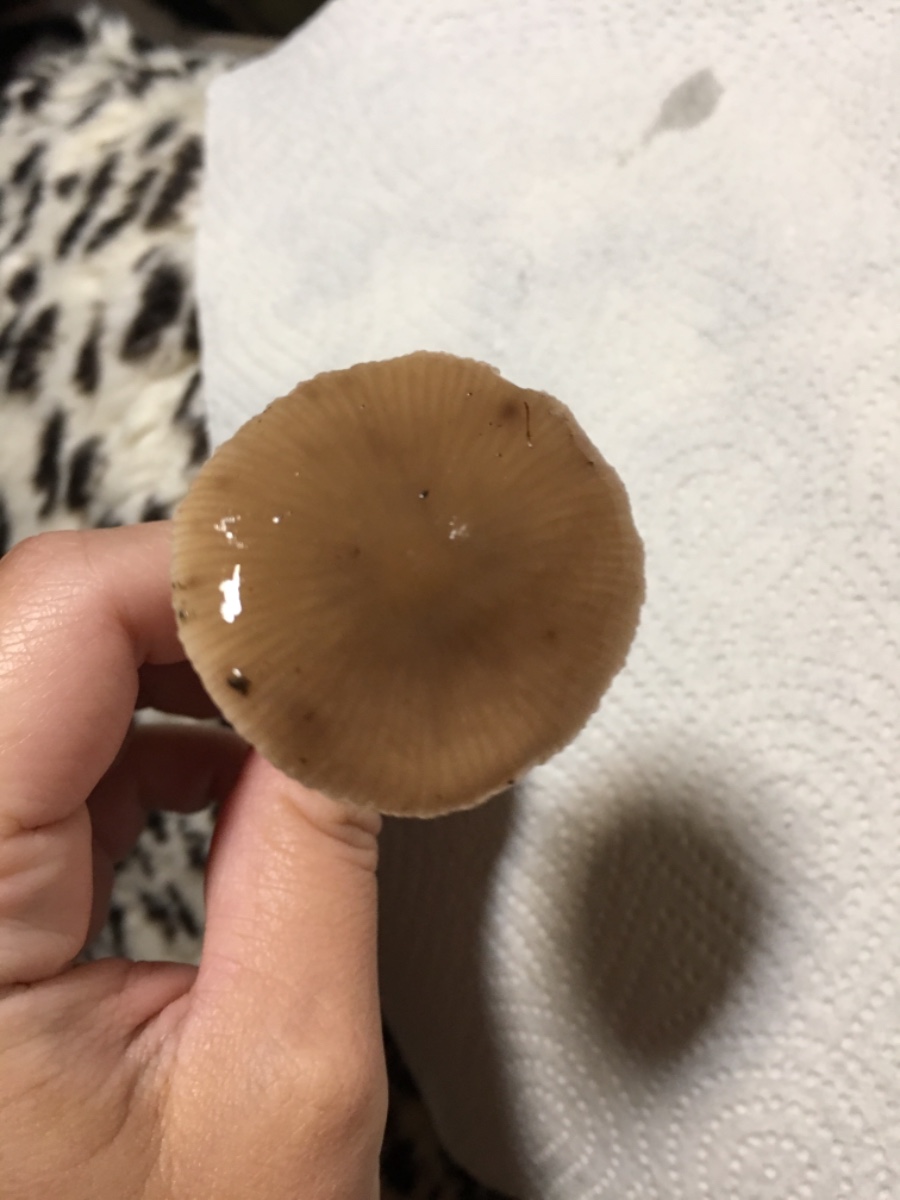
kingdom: Fungi
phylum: Basidiomycota
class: Agaricomycetes
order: Agaricales
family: Omphalotaceae
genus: Mycetinis
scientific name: Mycetinis alliaceus
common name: stor løghat
